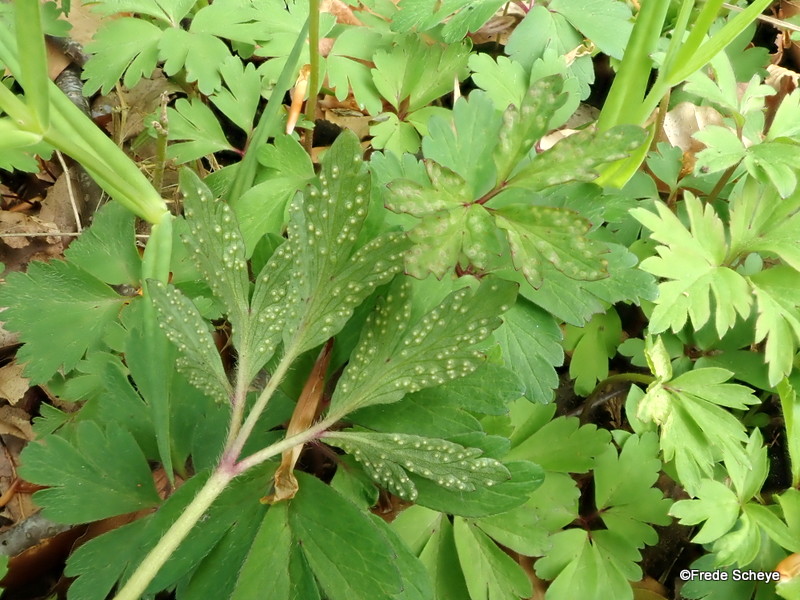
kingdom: Fungi
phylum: Basidiomycota
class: Pucciniomycetes
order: Pucciniales
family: Ochropsoraceae
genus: Ochropsora
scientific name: Ochropsora ariae
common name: anemone-okkerpletrust
